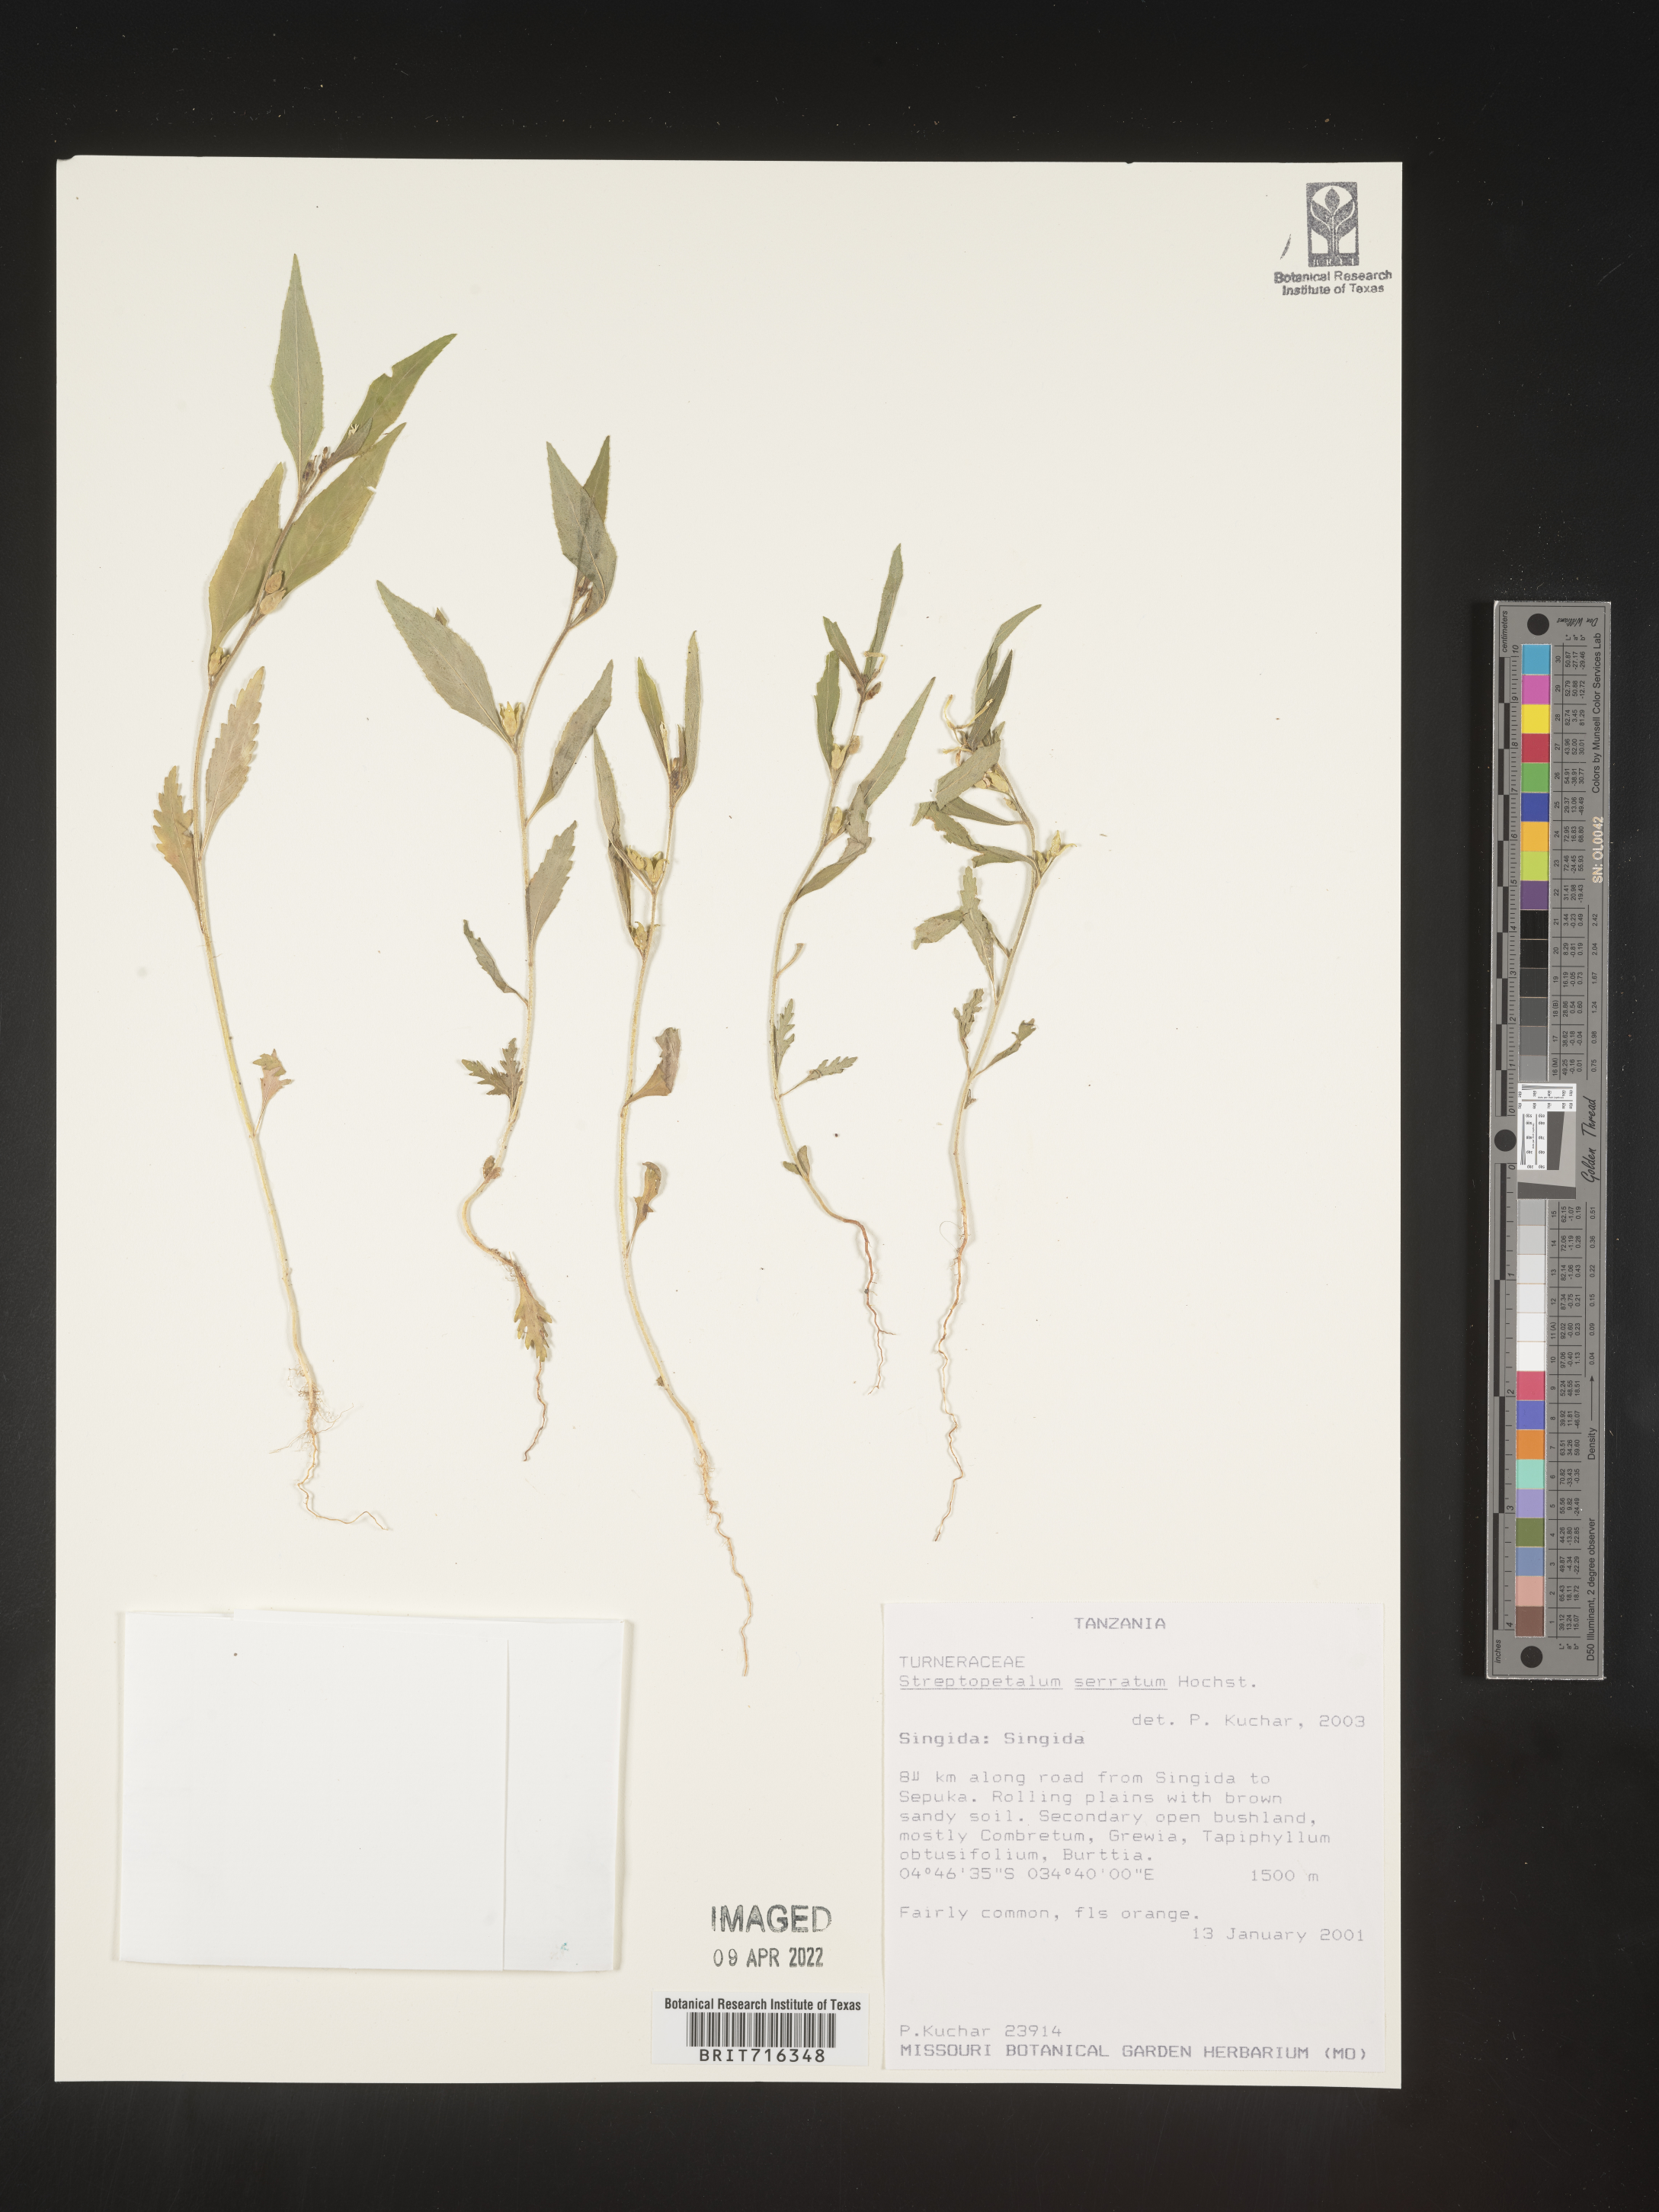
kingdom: Plantae
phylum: Tracheophyta
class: Magnoliopsida
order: Malpighiales
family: Turneraceae
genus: Streptopetalum
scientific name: Streptopetalum
